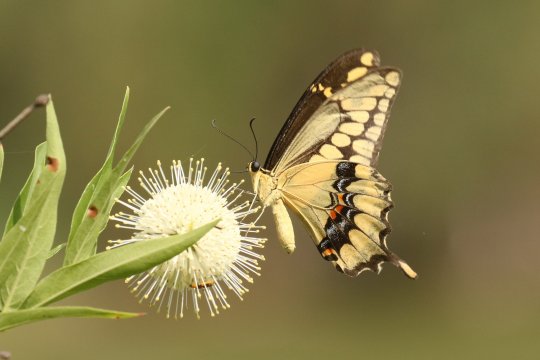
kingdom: Animalia
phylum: Arthropoda
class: Insecta
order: Lepidoptera
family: Papilionidae
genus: Papilio
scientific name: Papilio rumiko
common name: Western Giant Swallowtail
